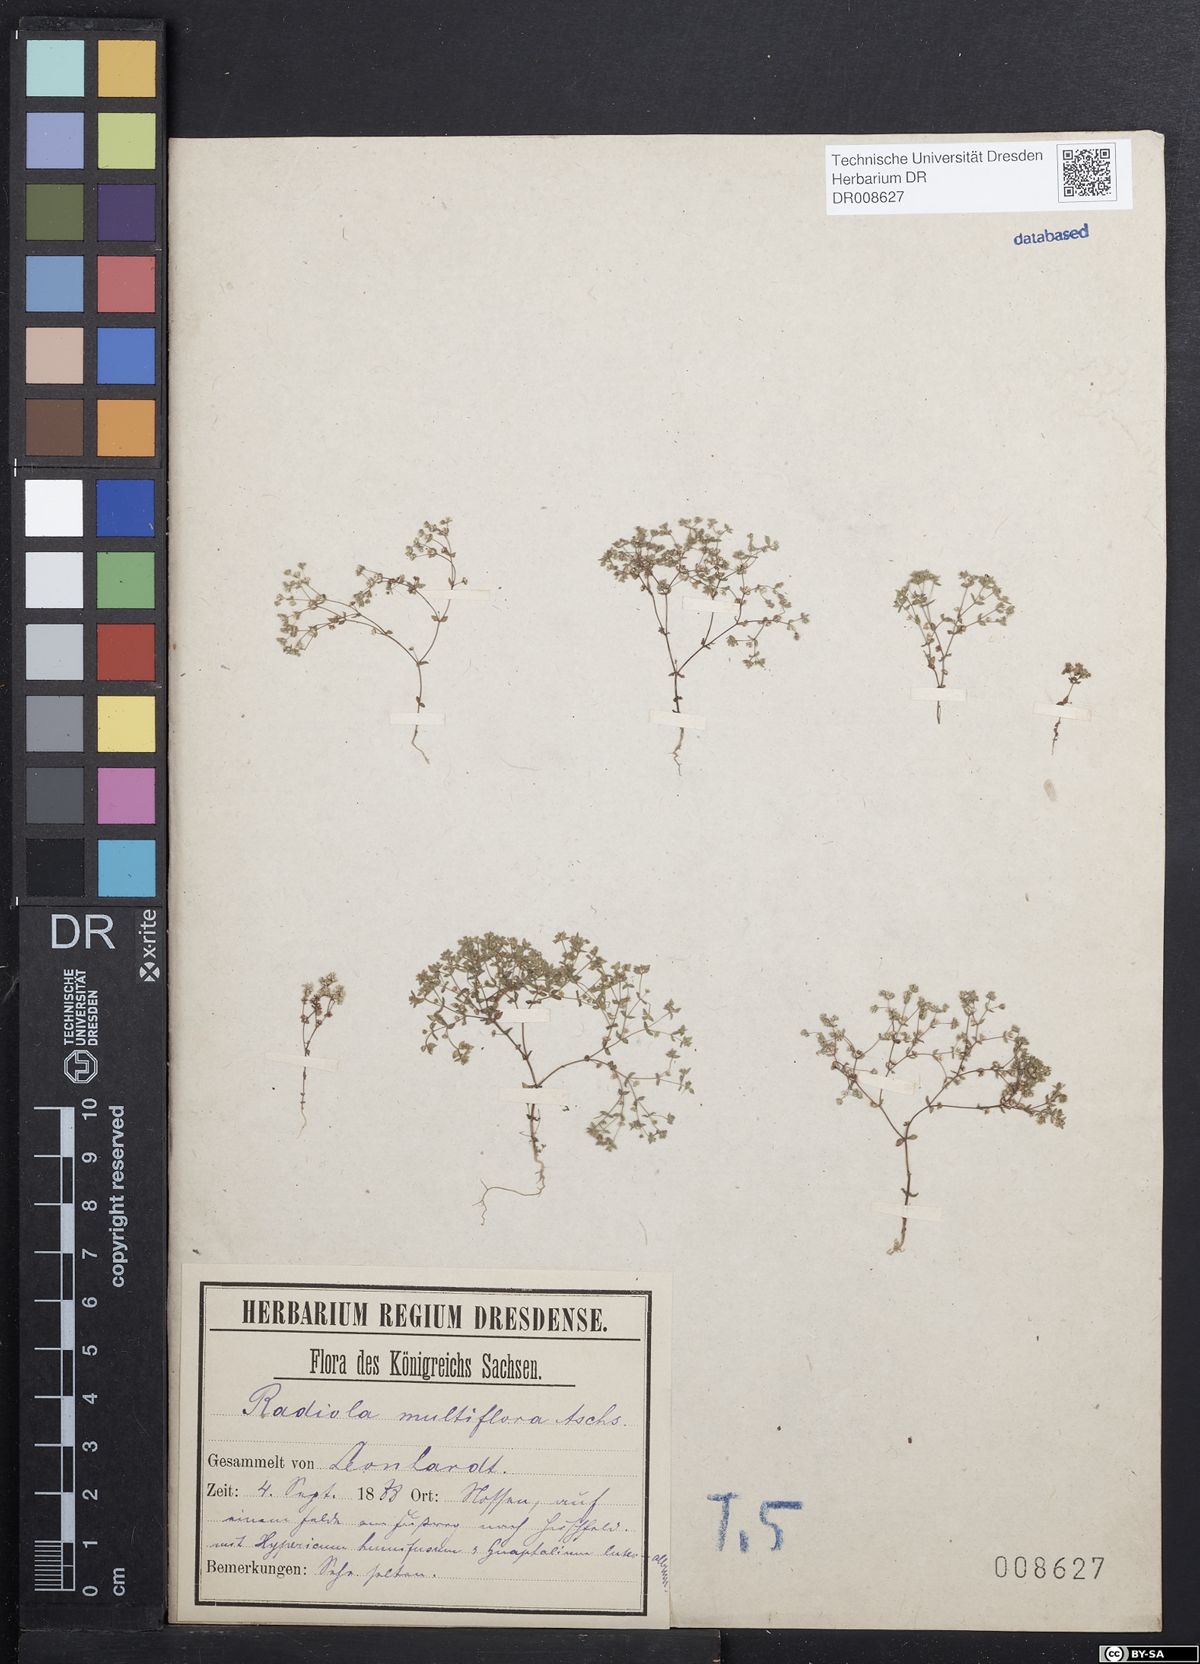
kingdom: Plantae
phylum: Tracheophyta
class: Magnoliopsida
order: Malpighiales
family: Linaceae
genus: Radiola
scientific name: Radiola linoides
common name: Allseed
